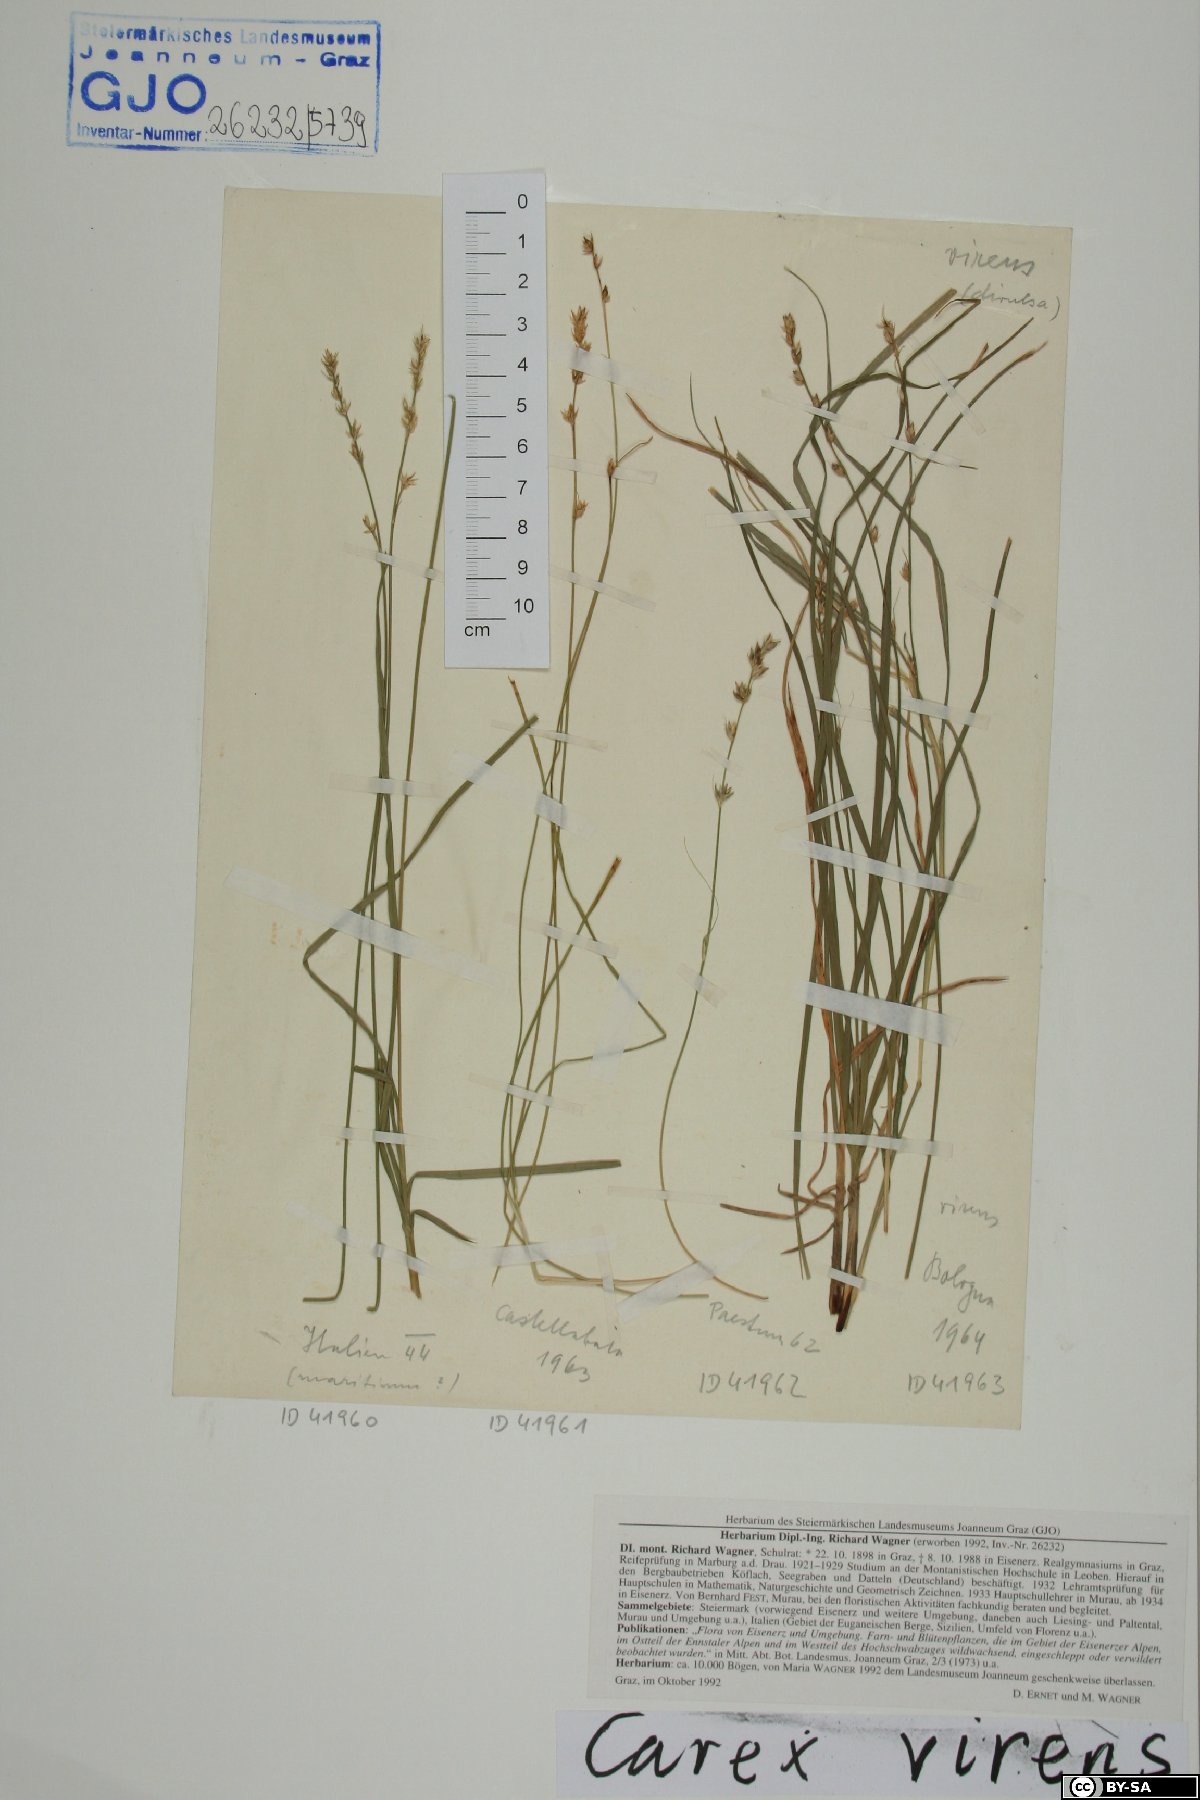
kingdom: Plantae
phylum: Tracheophyta
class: Liliopsida
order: Poales
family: Cyperaceae
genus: Carex
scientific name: Carex divulsa
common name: Grassland sedge
